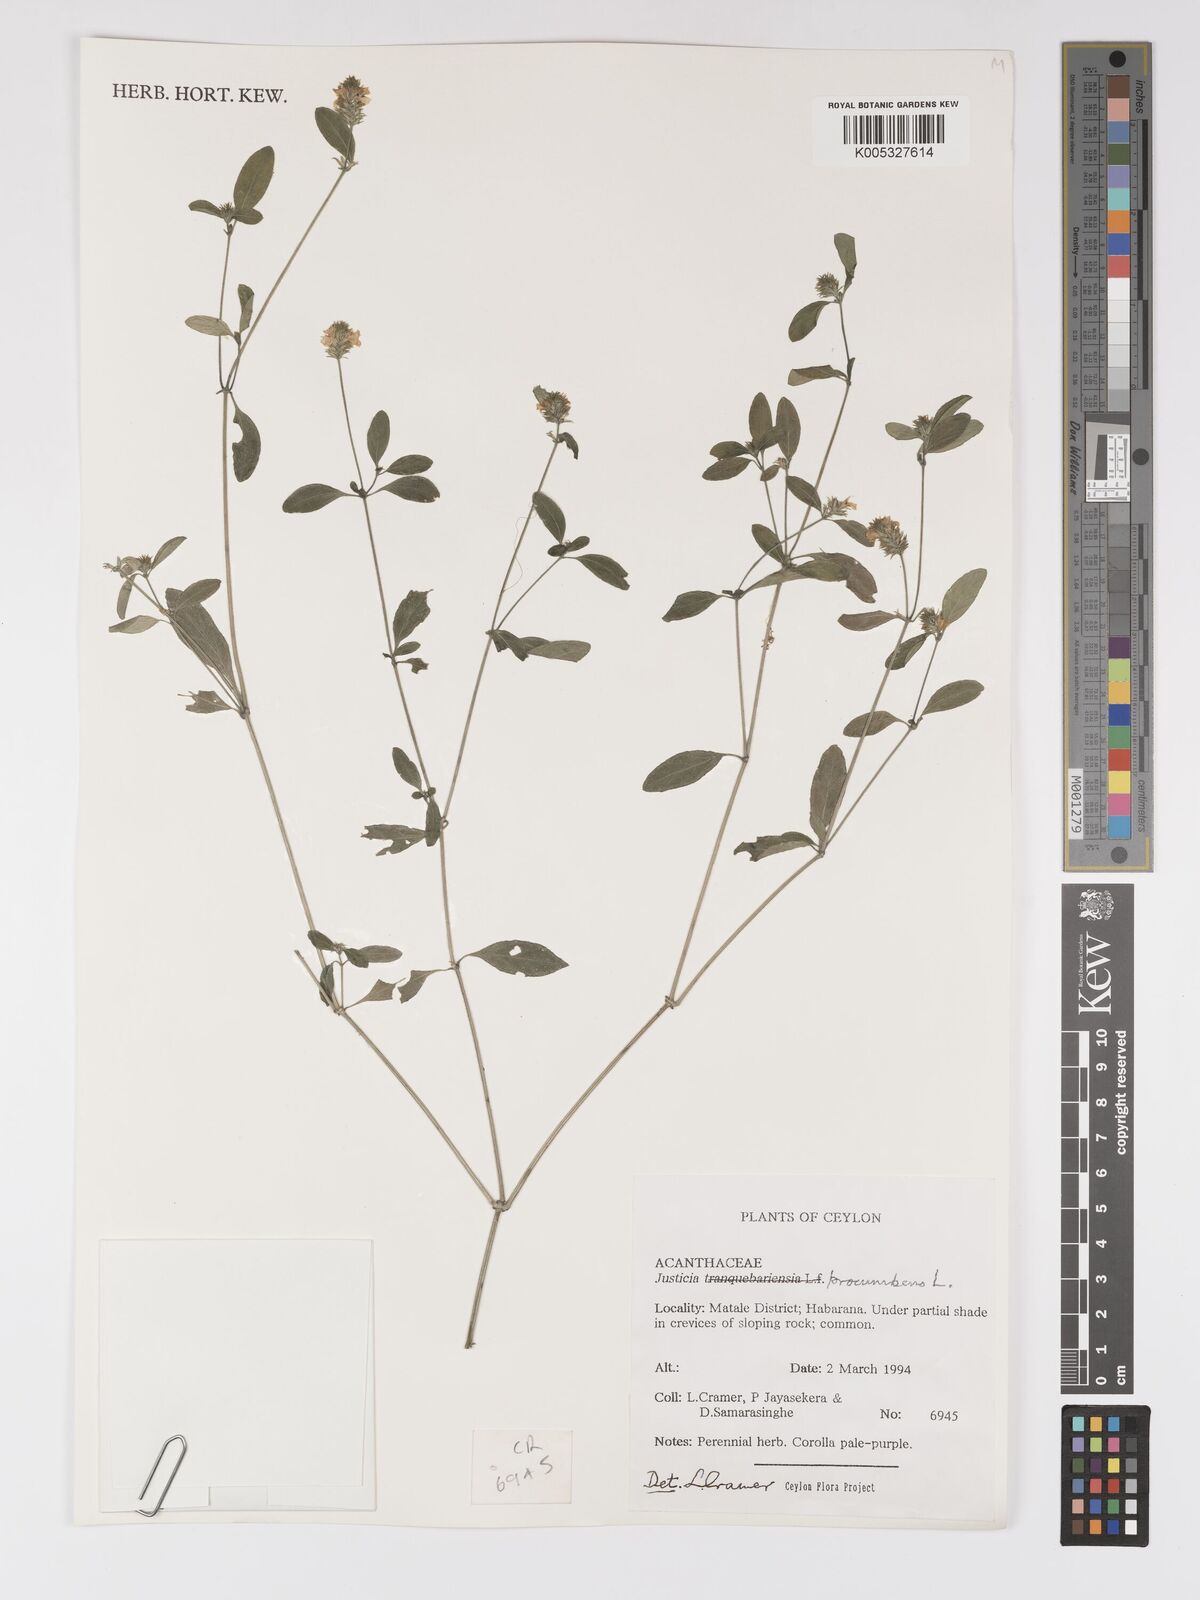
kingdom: Plantae
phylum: Tracheophyta
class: Magnoliopsida
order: Lamiales
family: Acanthaceae
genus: Rostellularia
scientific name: Rostellularia procumbens
